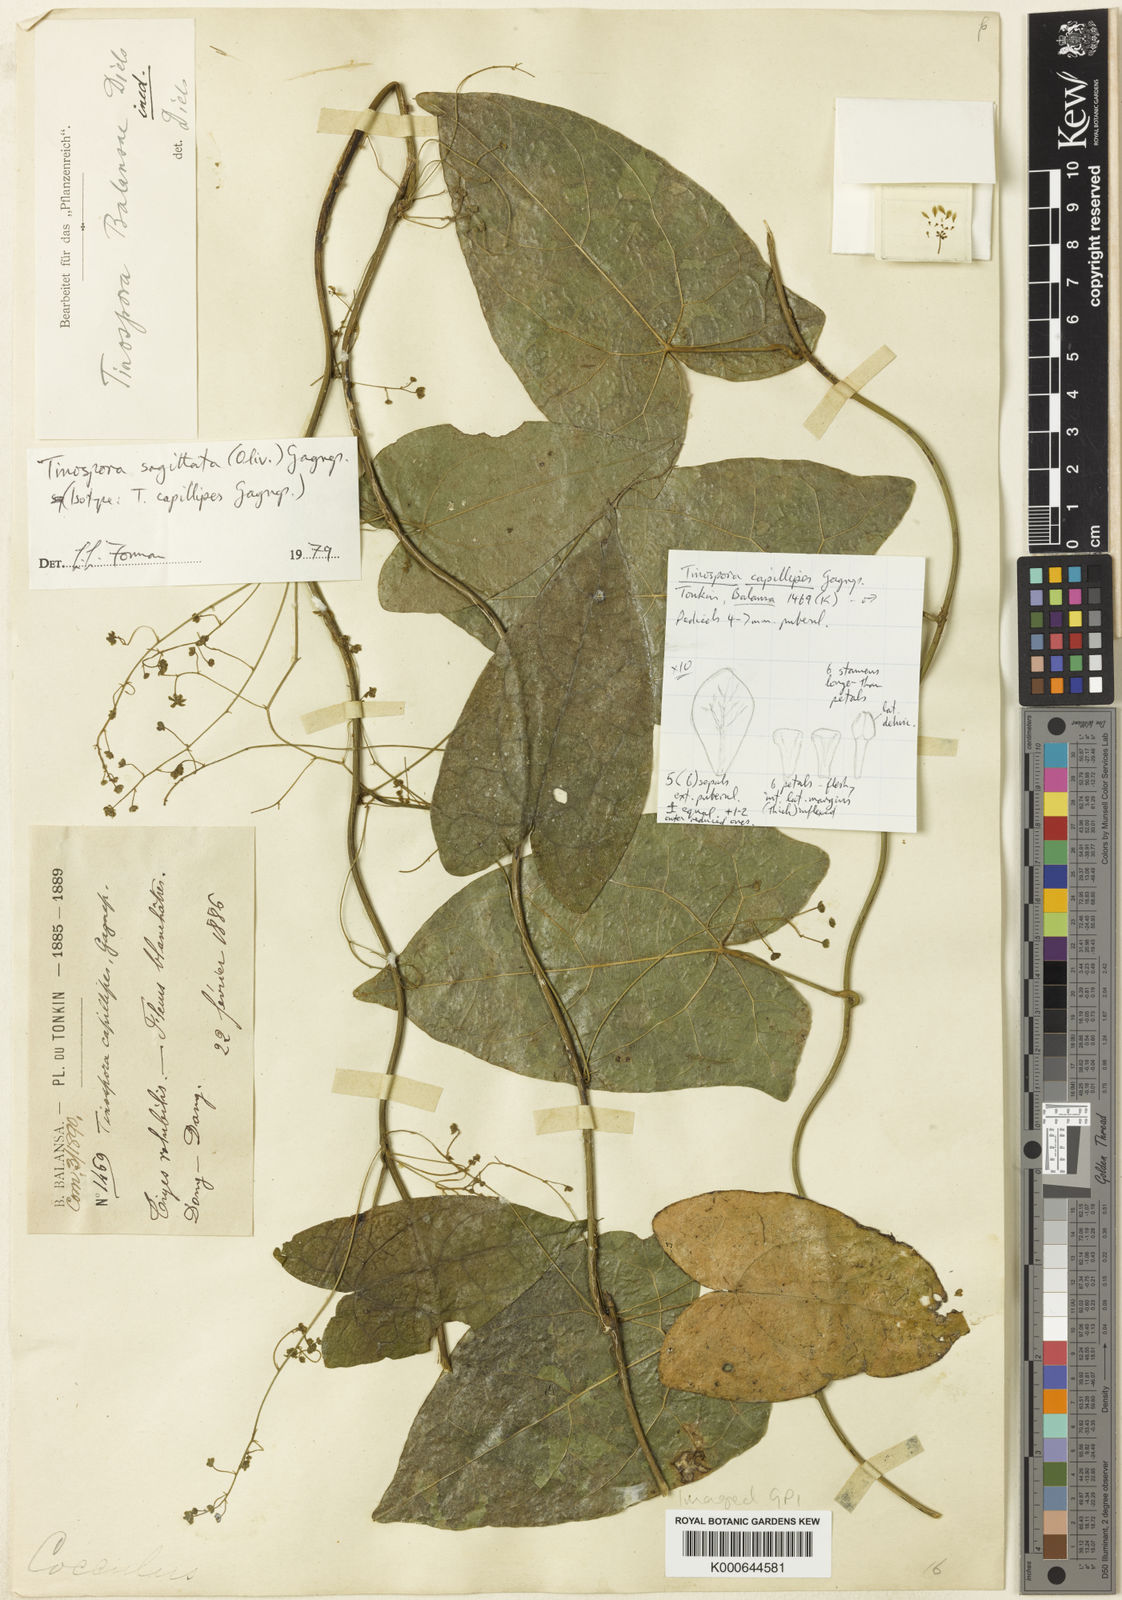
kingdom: Plantae
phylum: Tracheophyta
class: Magnoliopsida
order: Ranunculales
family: Menispermaceae
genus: Paratinospora
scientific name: Paratinospora sagittata
